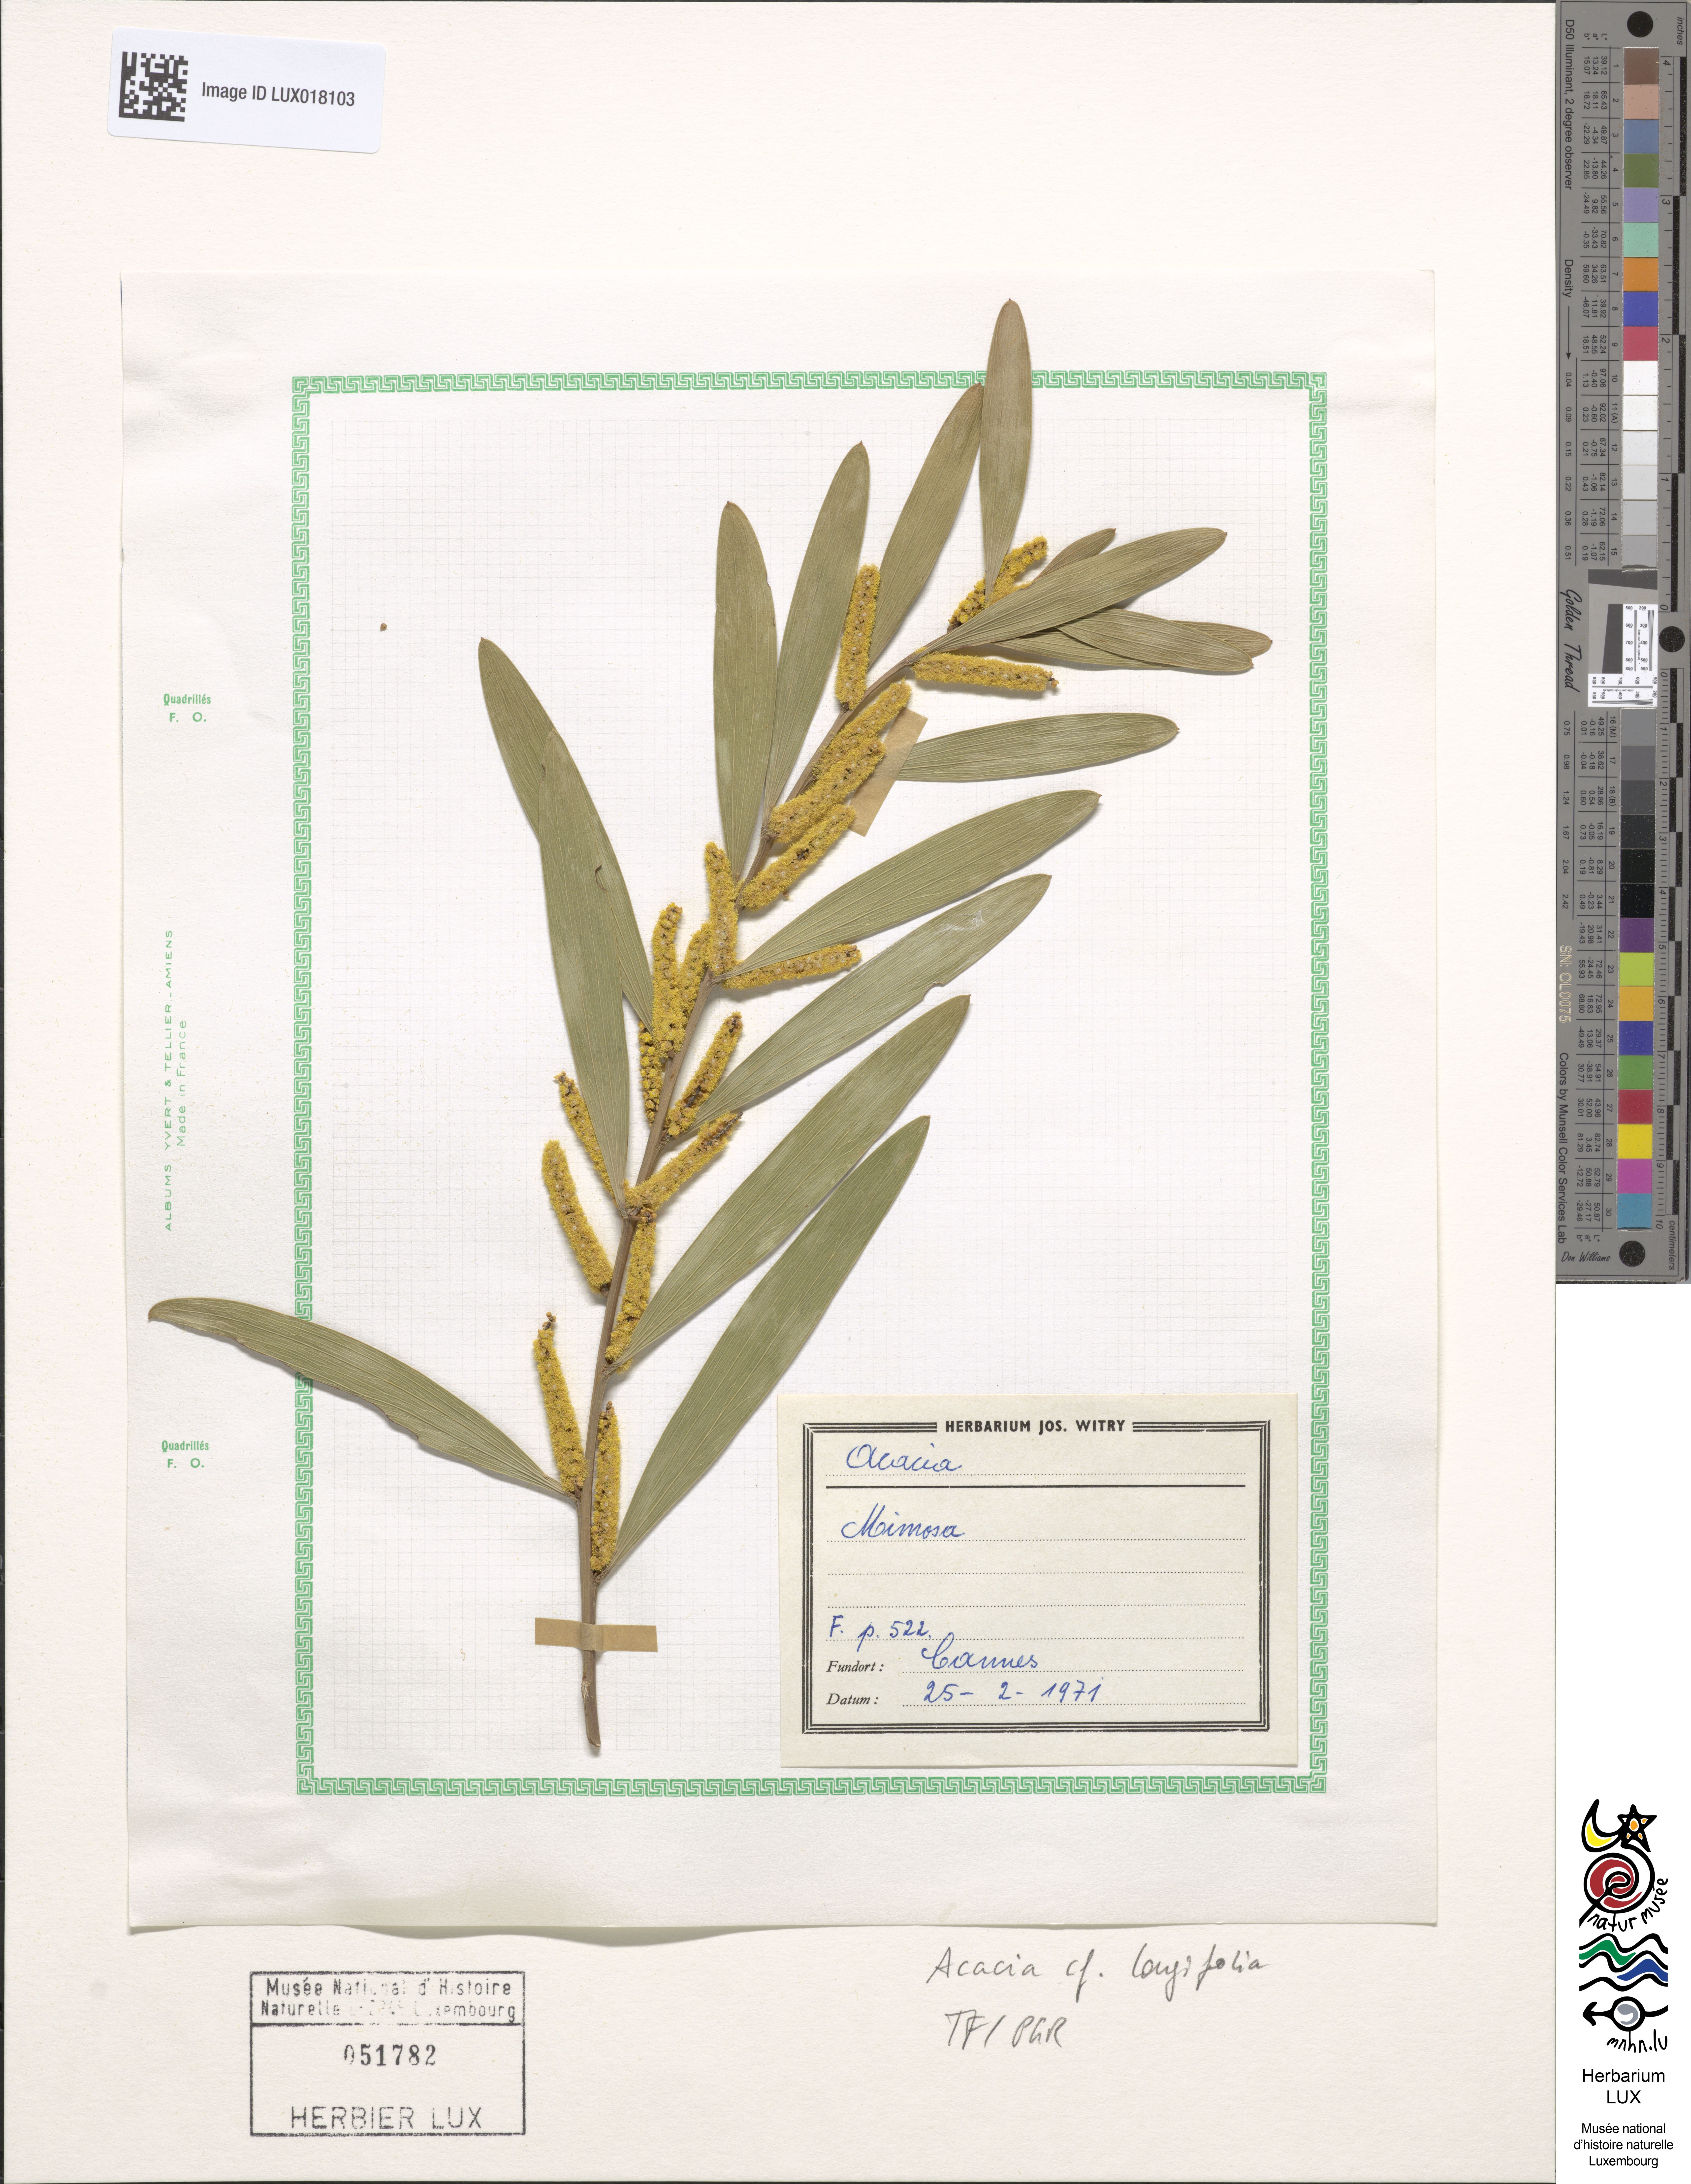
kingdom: Plantae
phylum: Tracheophyta
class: Magnoliopsida
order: Fabales
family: Fabaceae
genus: Acacia
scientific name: Acacia longifolia
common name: Sydney golden wattle
